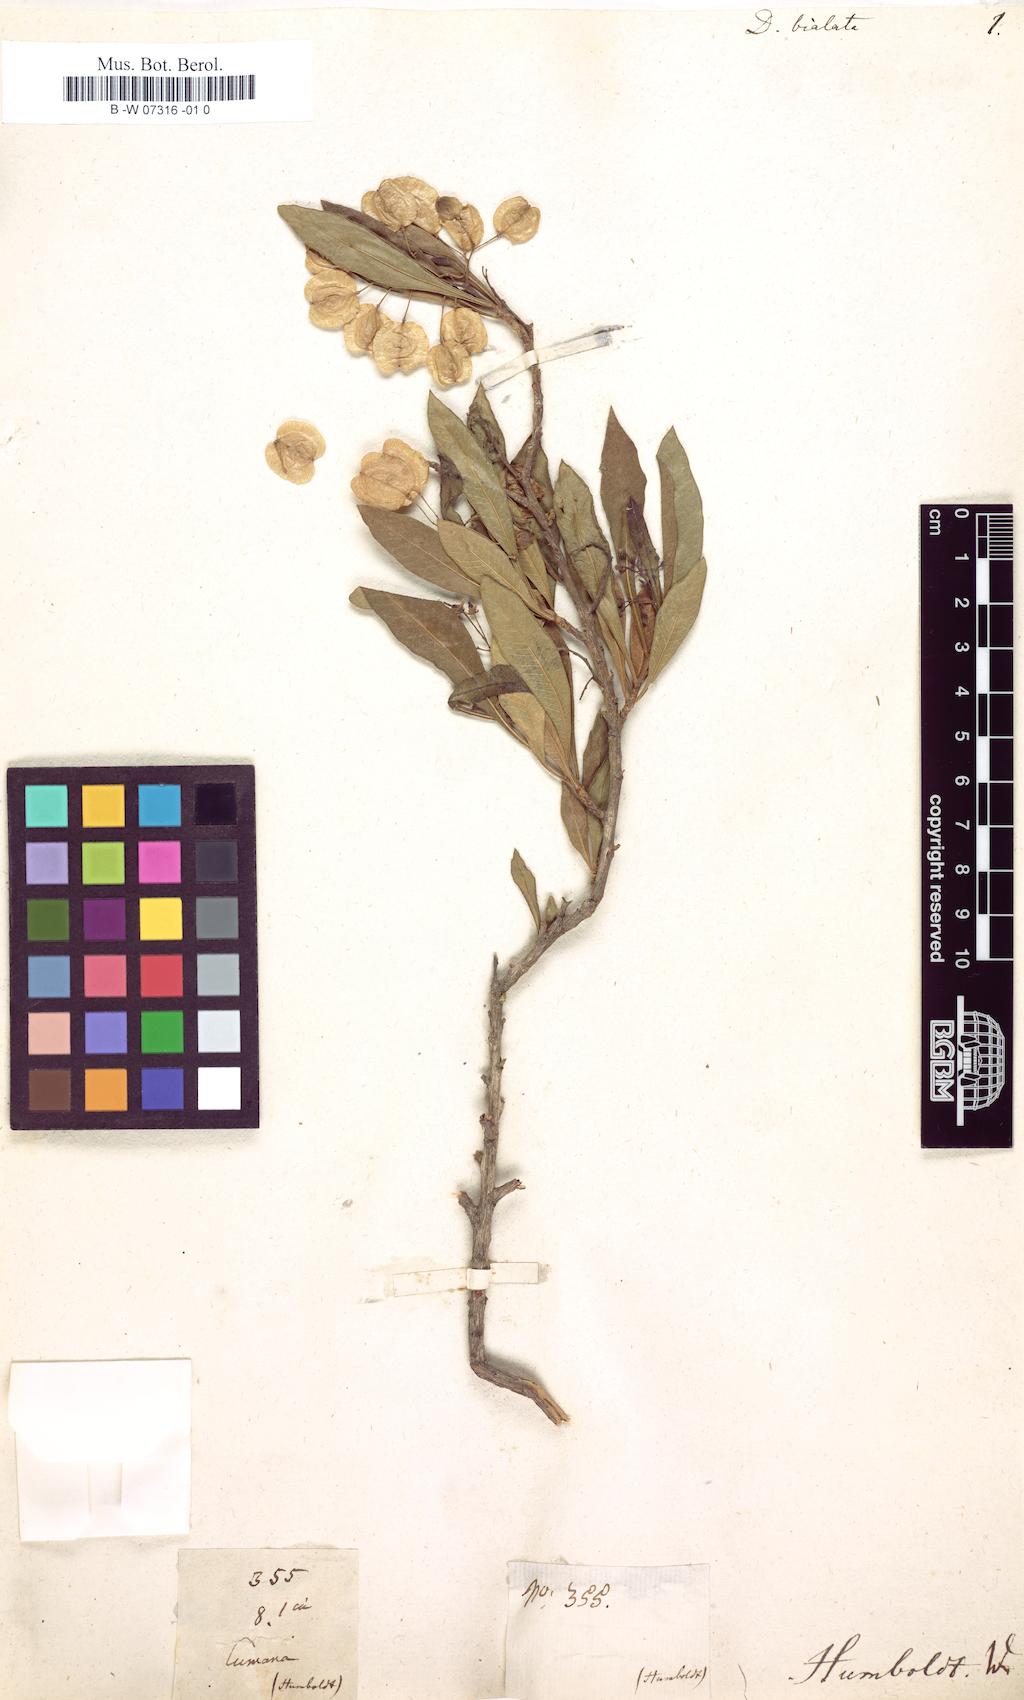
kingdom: Plantae
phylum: Tracheophyta
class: Magnoliopsida
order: Sapindales
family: Sapindaceae
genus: Dodonaea
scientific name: Dodonaea viscosa
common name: Hopbush
